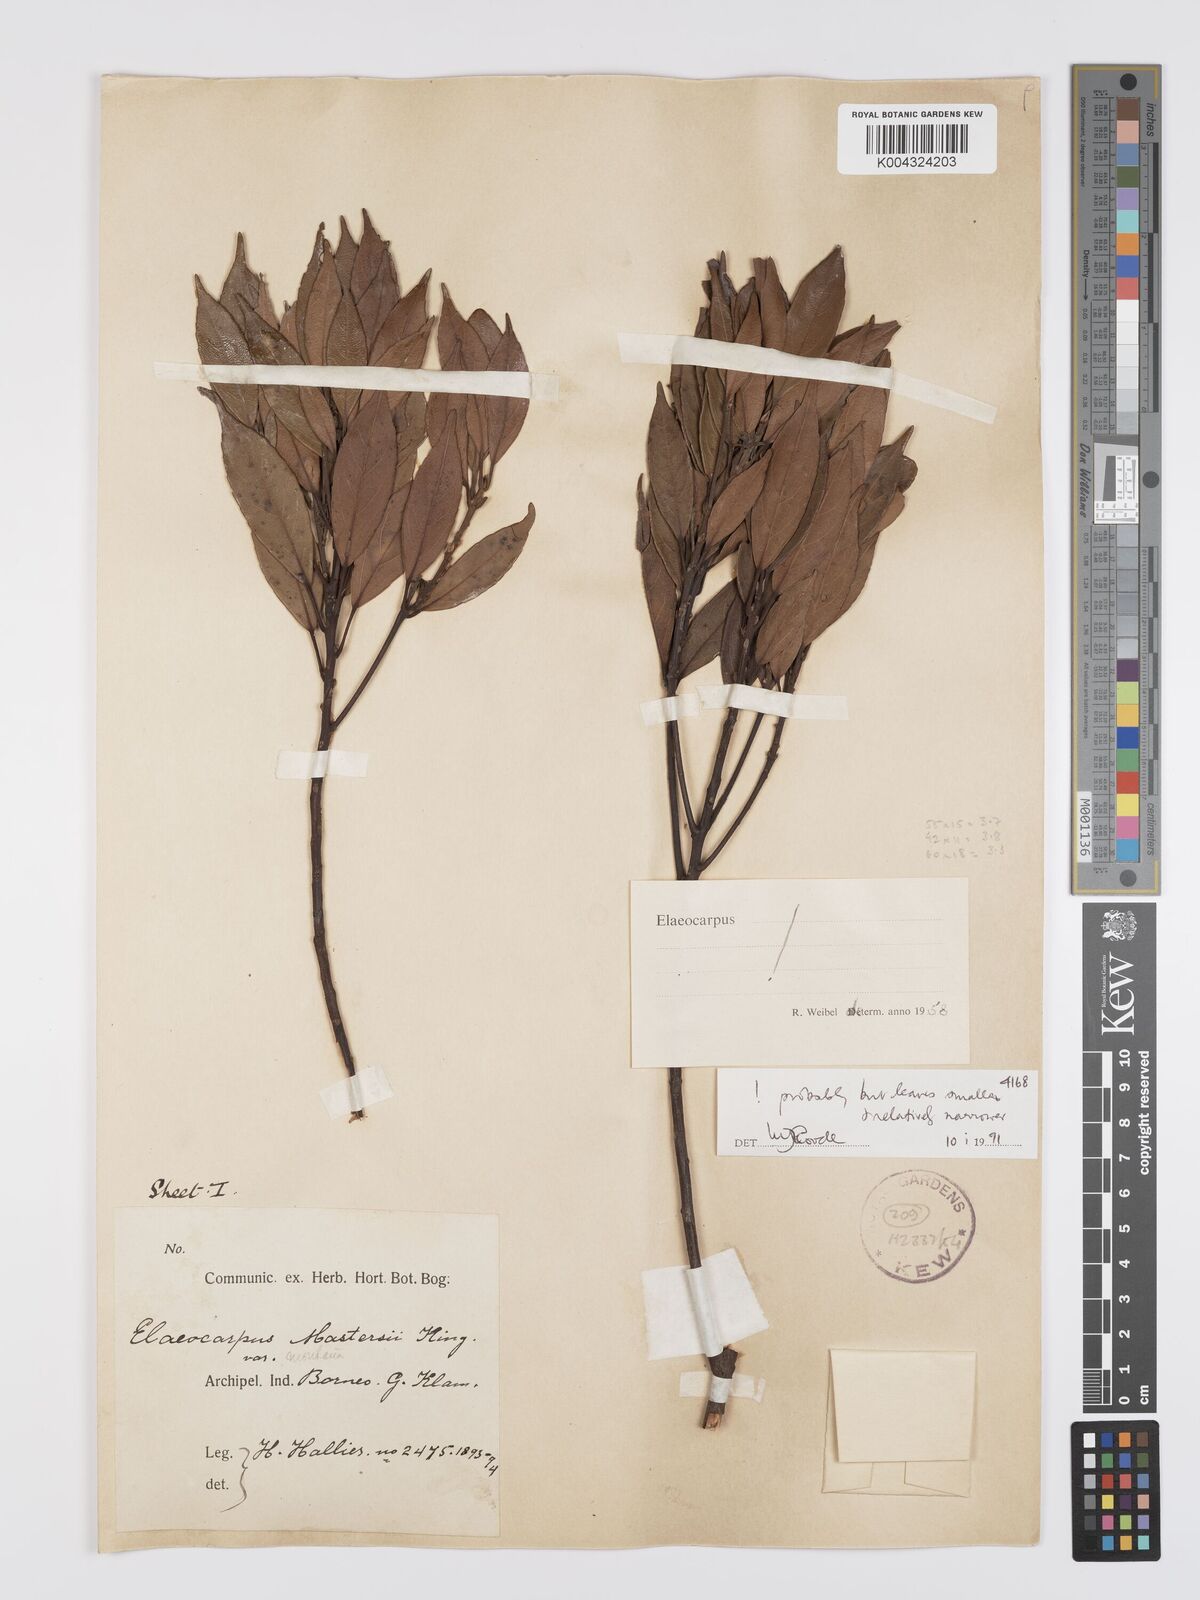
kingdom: Plantae
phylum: Tracheophyta
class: Magnoliopsida
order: Oxalidales
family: Elaeocarpaceae
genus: Elaeocarpus
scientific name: Elaeocarpus mastersii
